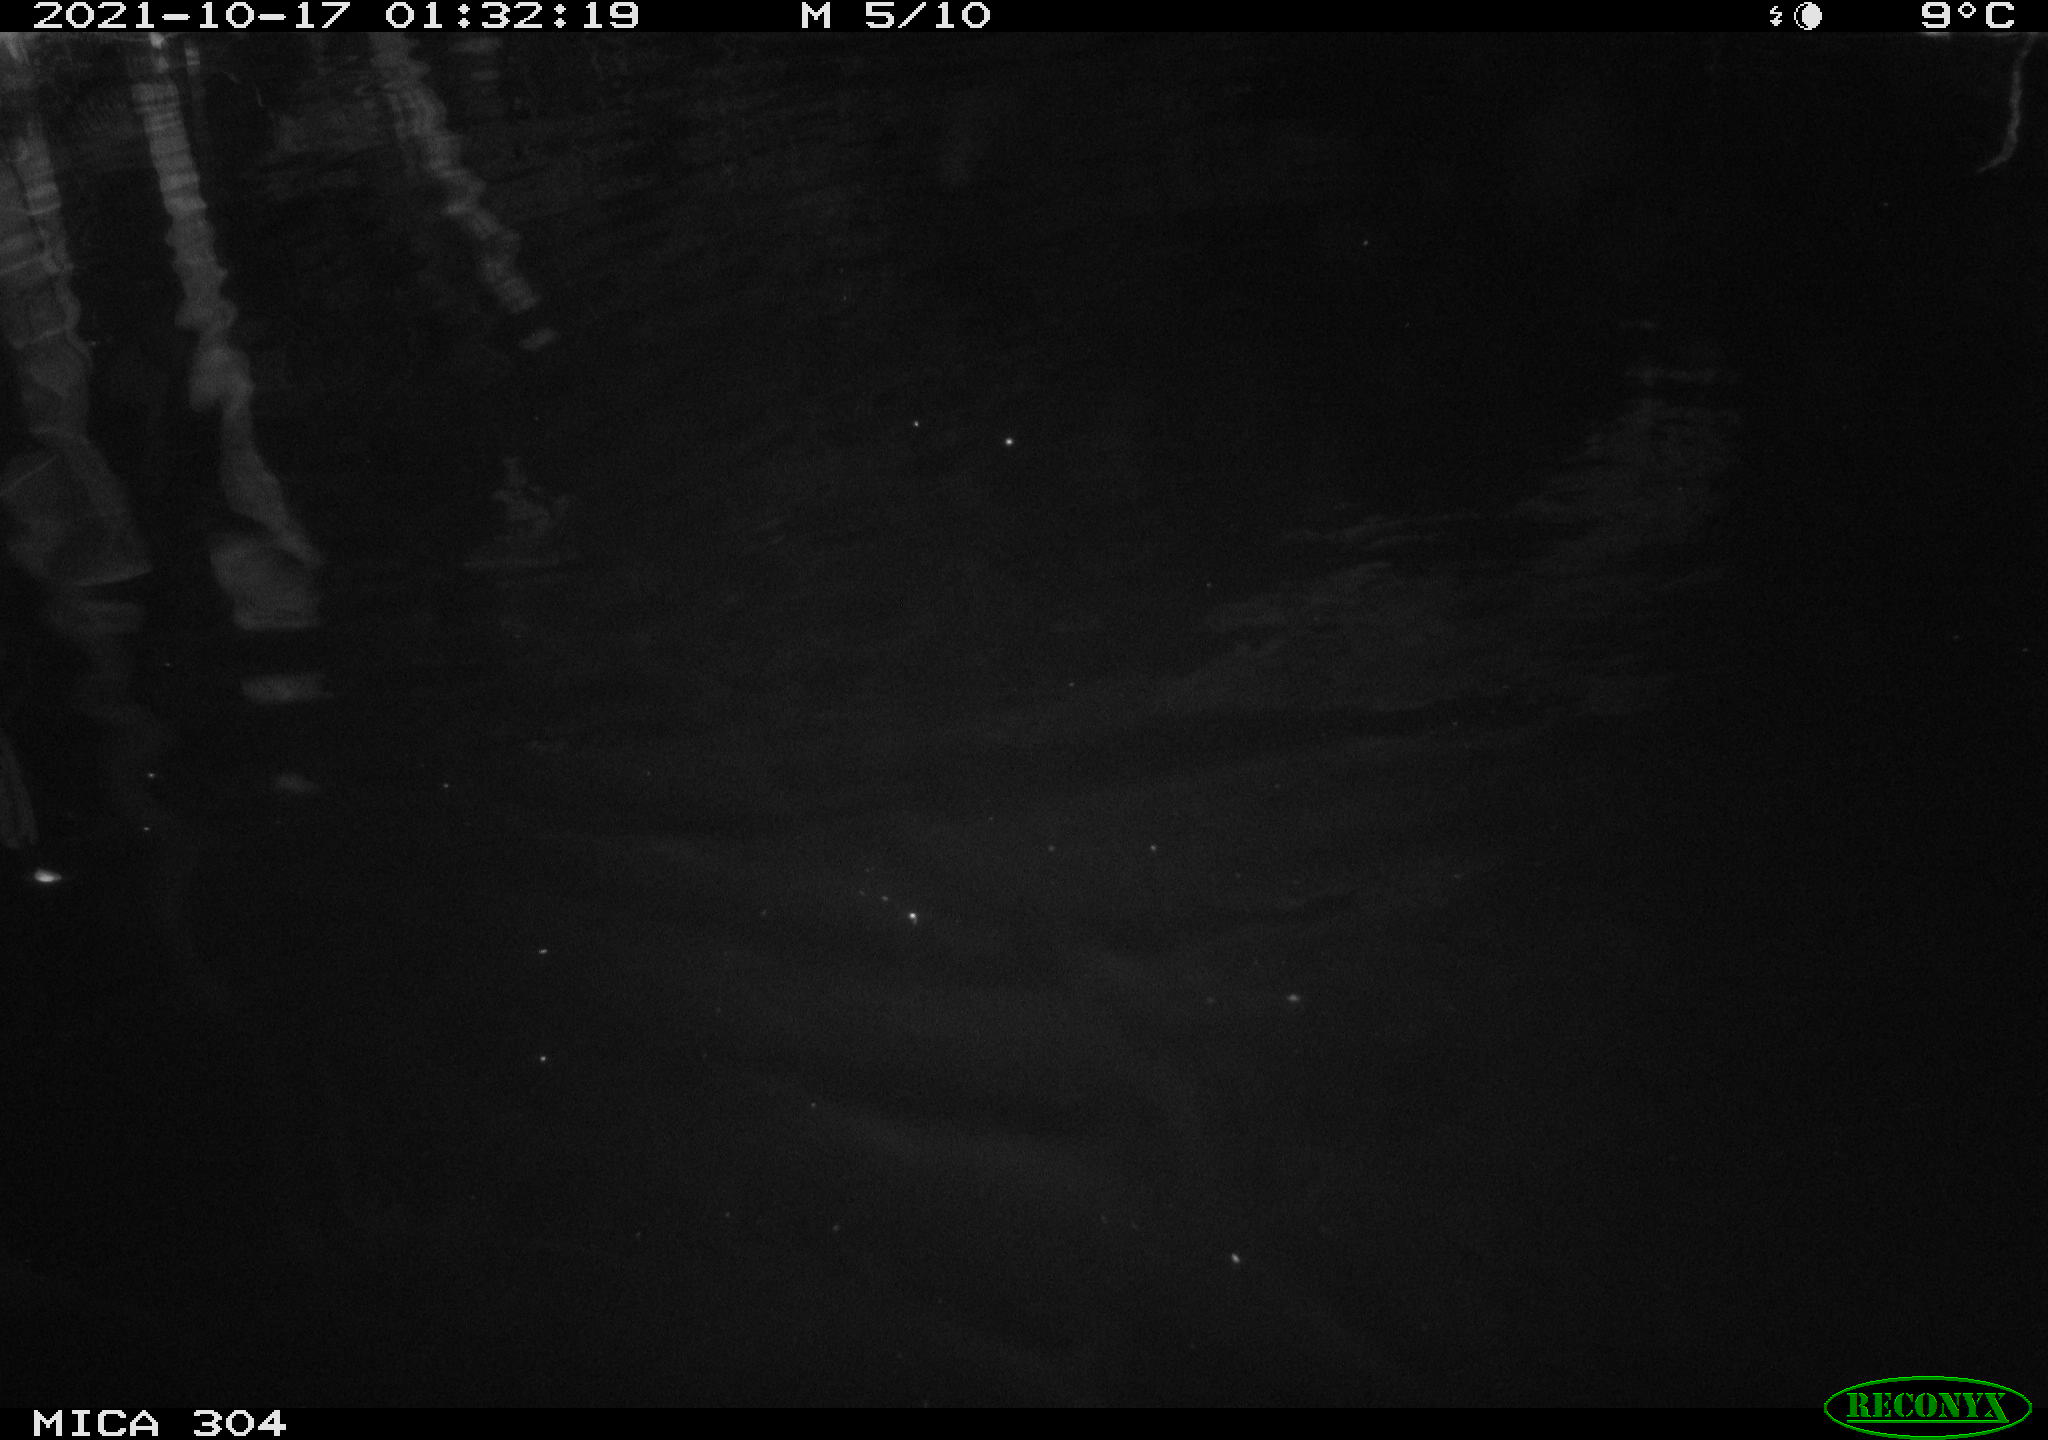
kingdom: Animalia
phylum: Chordata
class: Mammalia
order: Rodentia
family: Cricetidae
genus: Ondatra
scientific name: Ondatra zibethicus
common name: Muskrat
